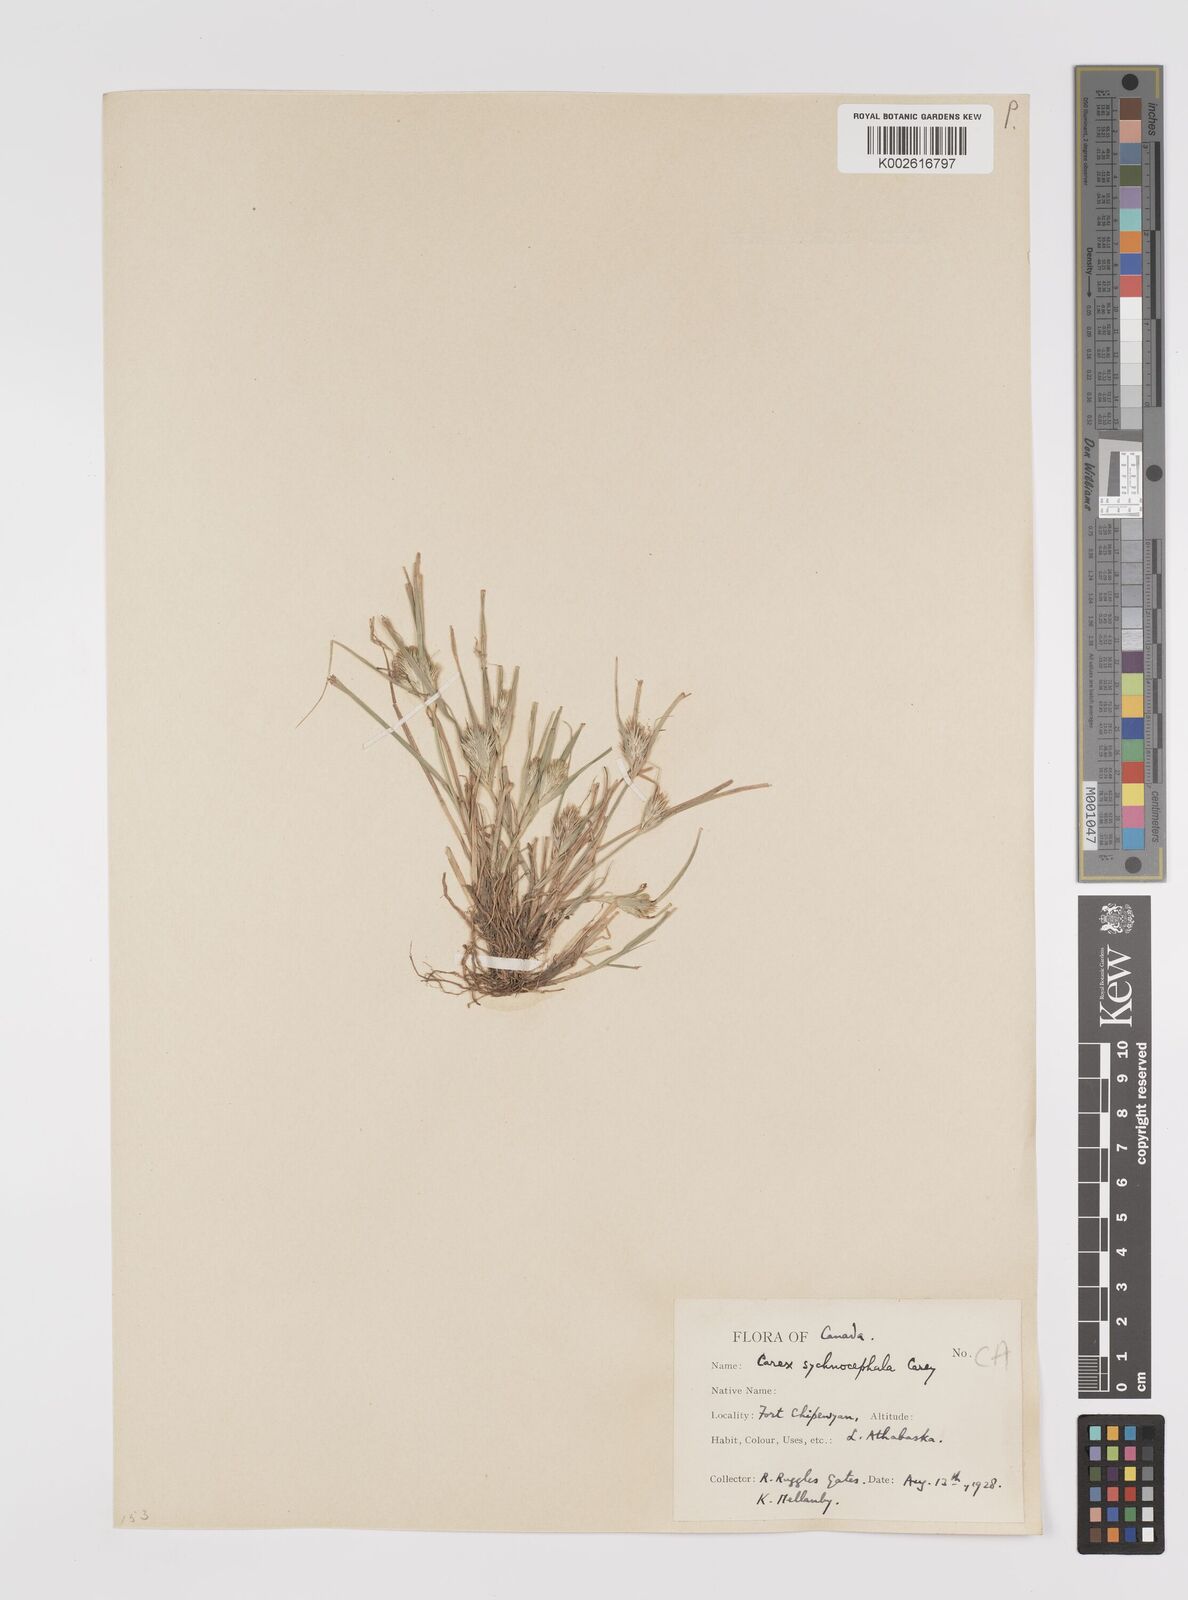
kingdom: Plantae
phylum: Tracheophyta
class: Liliopsida
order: Poales
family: Cyperaceae
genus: Carex
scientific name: Carex sychnocephala
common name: Dense long-beaked sedge
